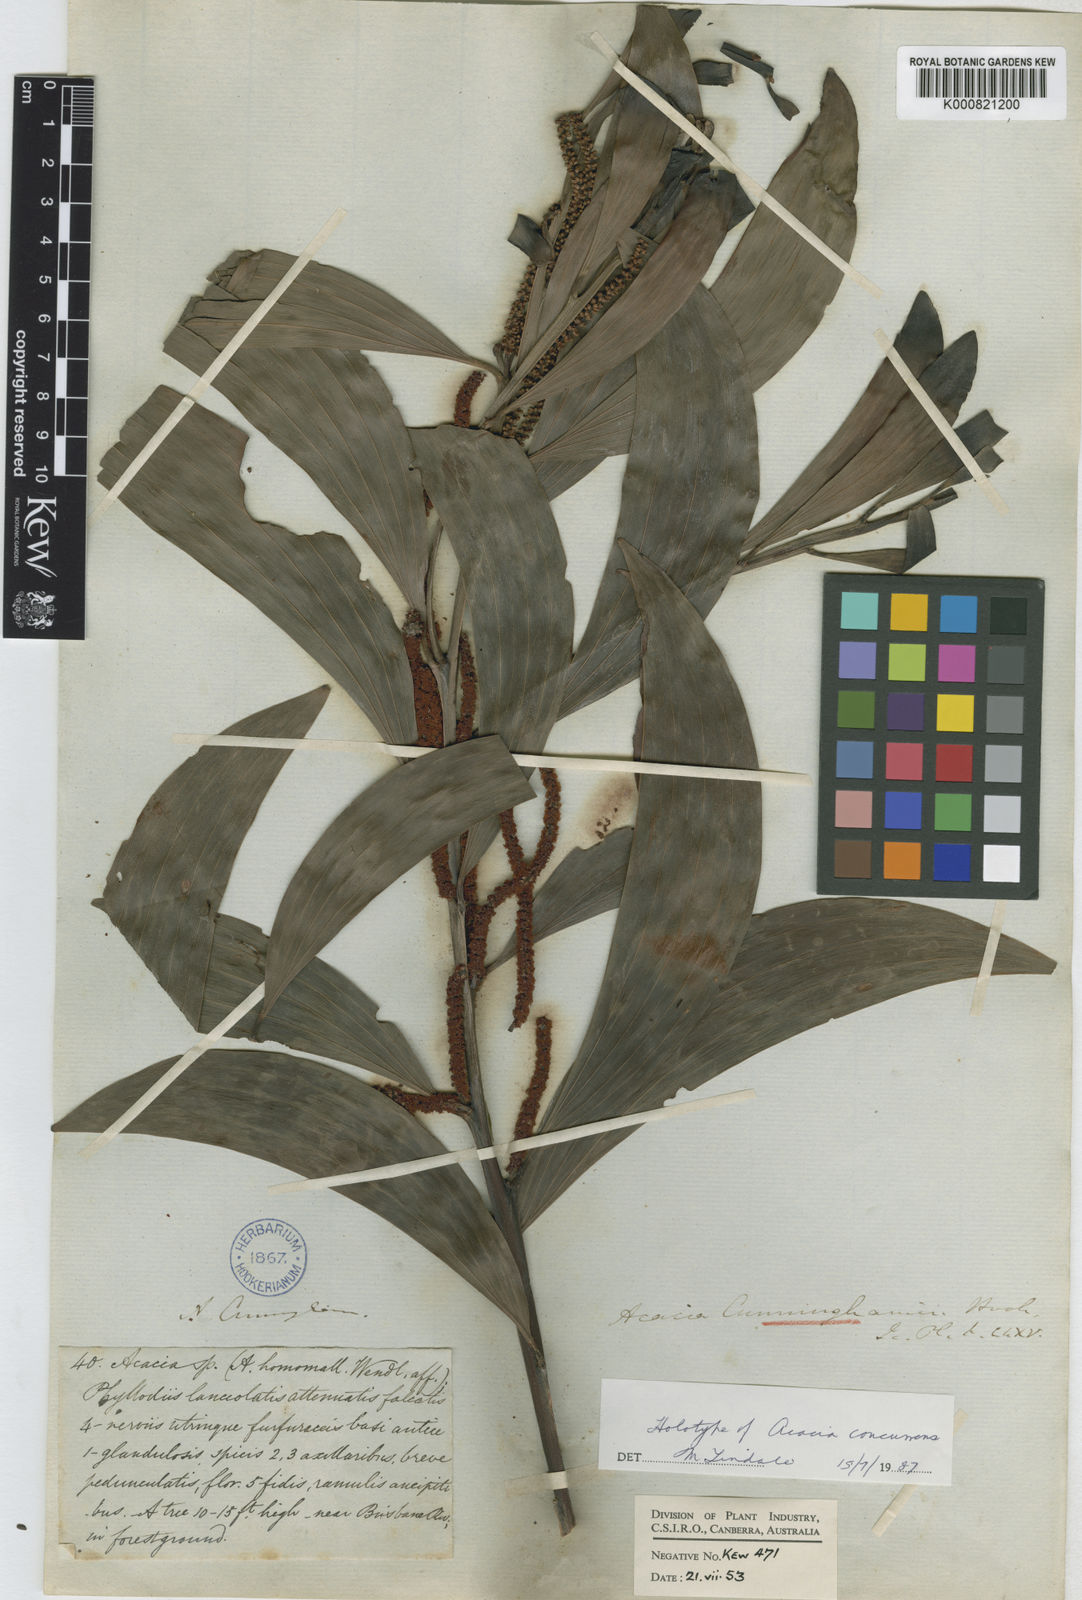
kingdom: Plantae
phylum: Tracheophyta
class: Magnoliopsida
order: Fabales
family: Fabaceae
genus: Acacia
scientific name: Acacia concurrens
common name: Black wattle
